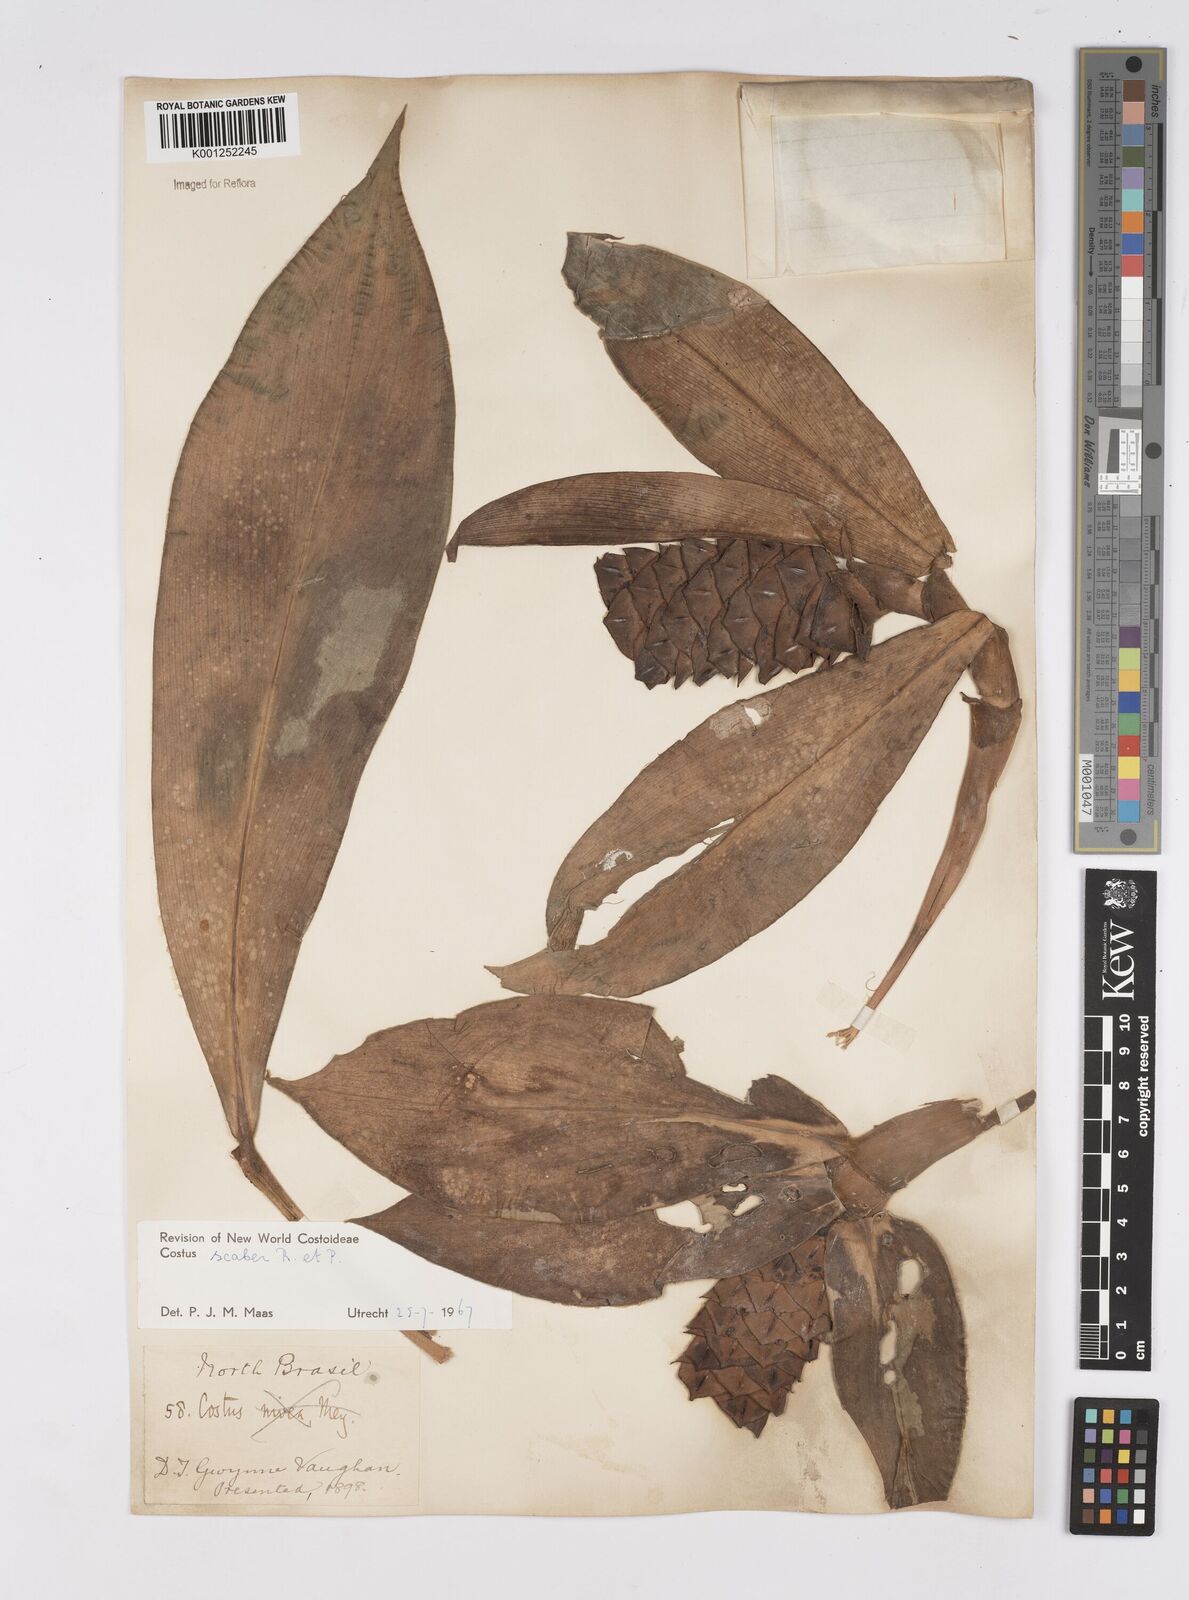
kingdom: Plantae
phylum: Tracheophyta
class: Liliopsida
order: Zingiberales
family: Costaceae
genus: Costus
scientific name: Costus scaber
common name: Spiral head ginger
